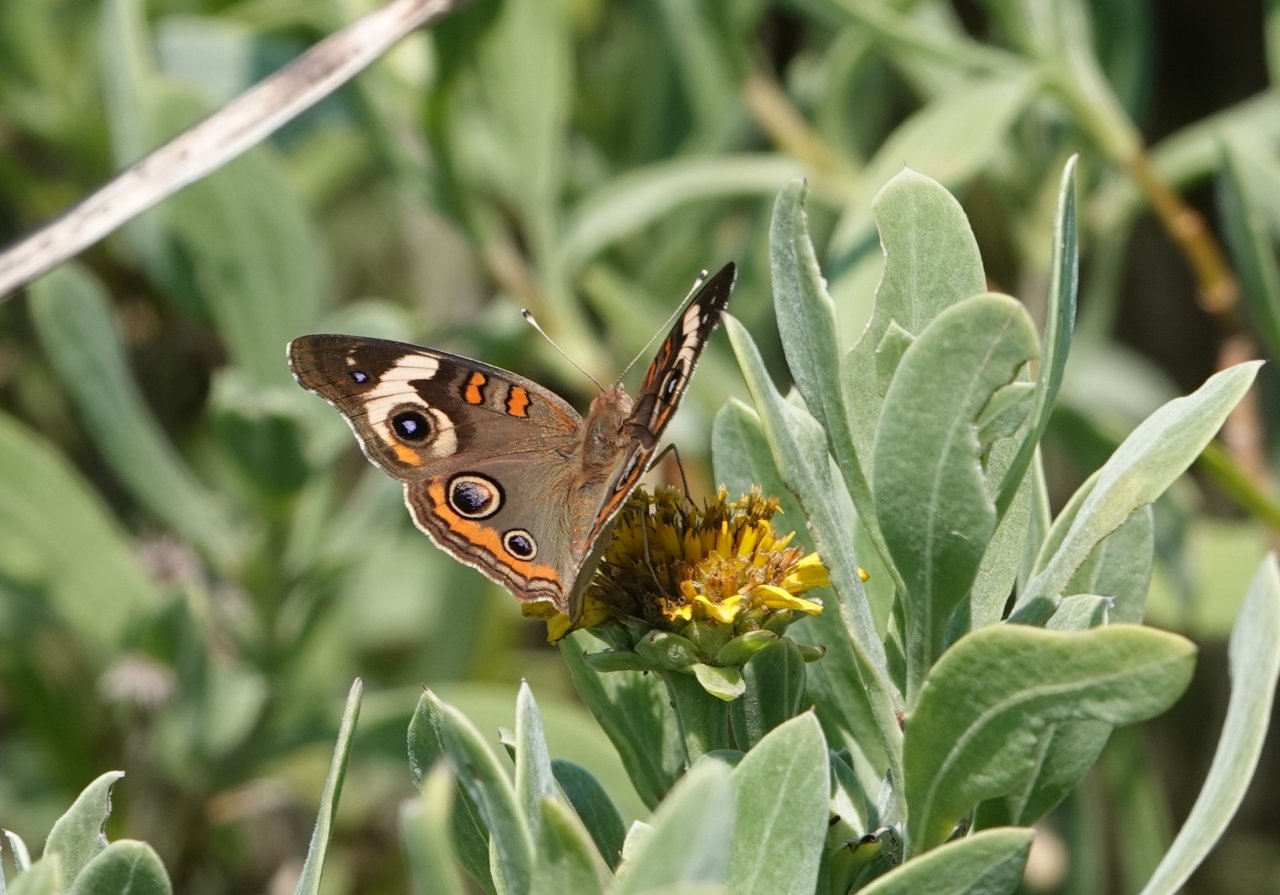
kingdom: Animalia
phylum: Arthropoda
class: Insecta
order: Lepidoptera
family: Nymphalidae
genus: Junonia
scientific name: Junonia coenia
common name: Common Buckeye
